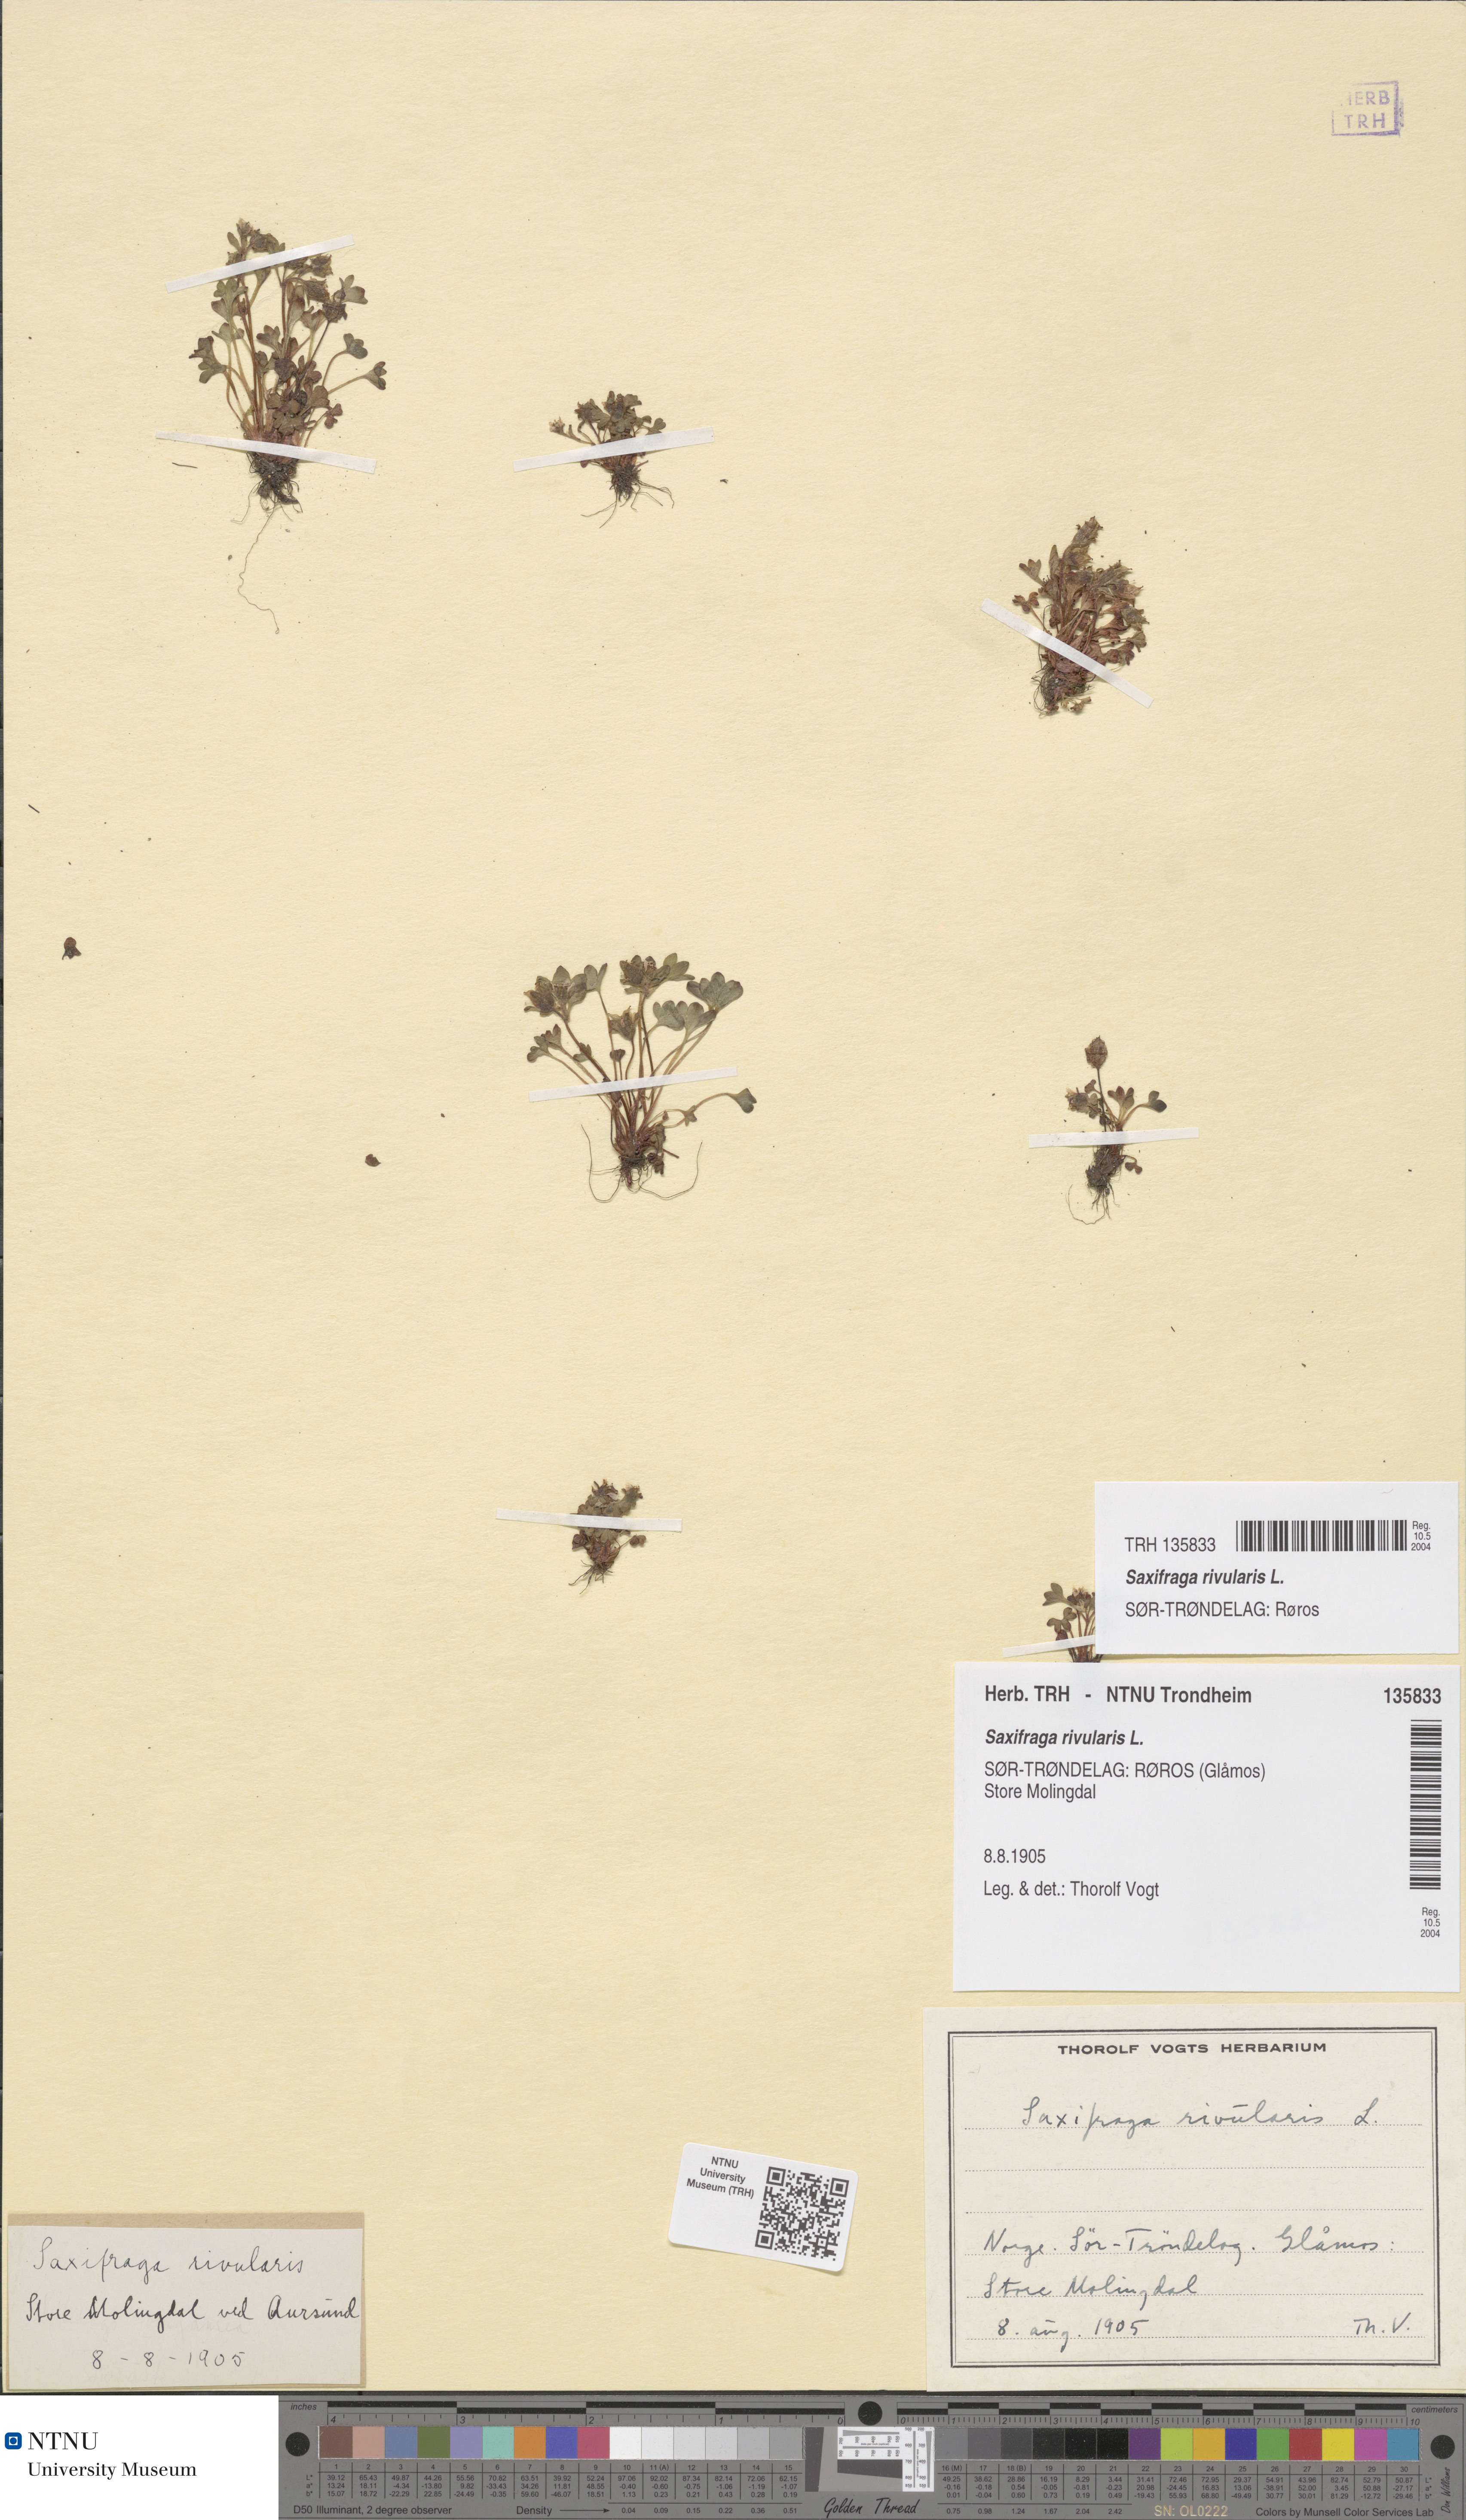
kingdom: Plantae
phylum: Tracheophyta
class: Magnoliopsida
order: Saxifragales
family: Saxifragaceae
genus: Saxifraga
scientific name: Saxifraga rivularis
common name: Highland saxifrage
